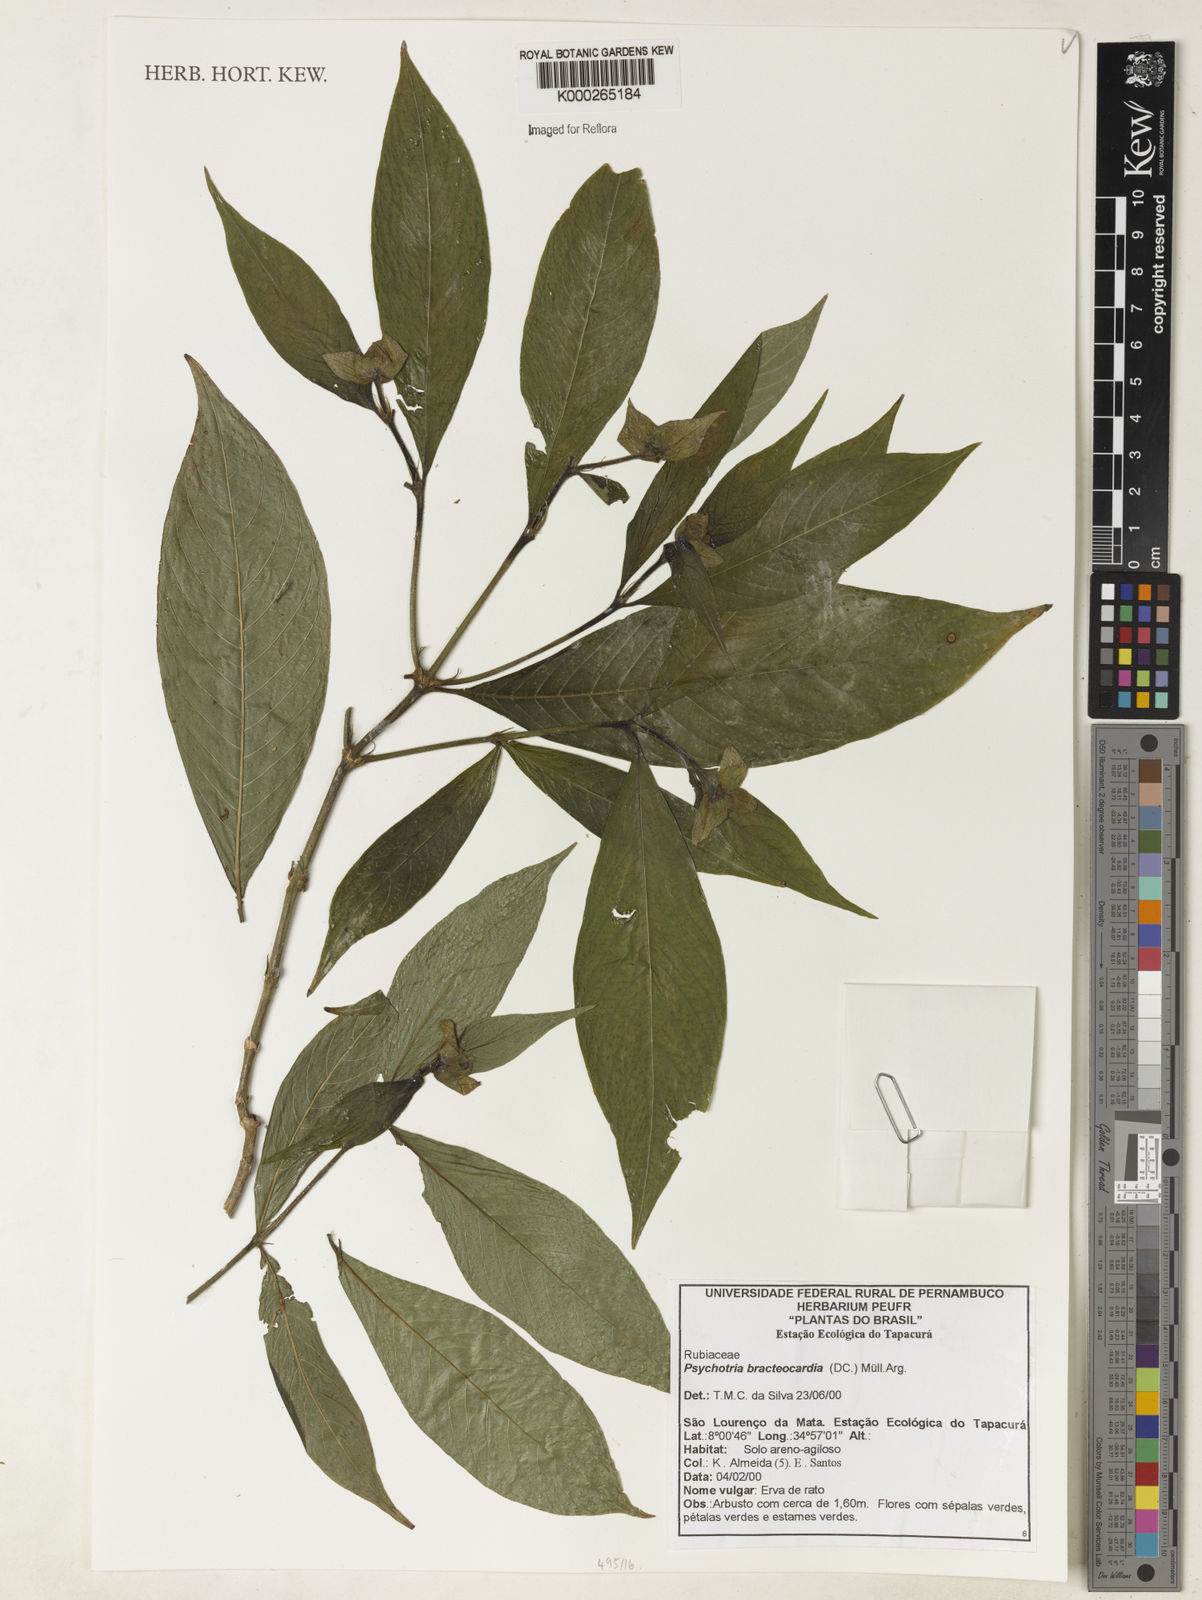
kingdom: Plantae
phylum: Tracheophyta
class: Magnoliopsida
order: Gentianales
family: Rubiaceae
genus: Psychotria
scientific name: Psychotria
